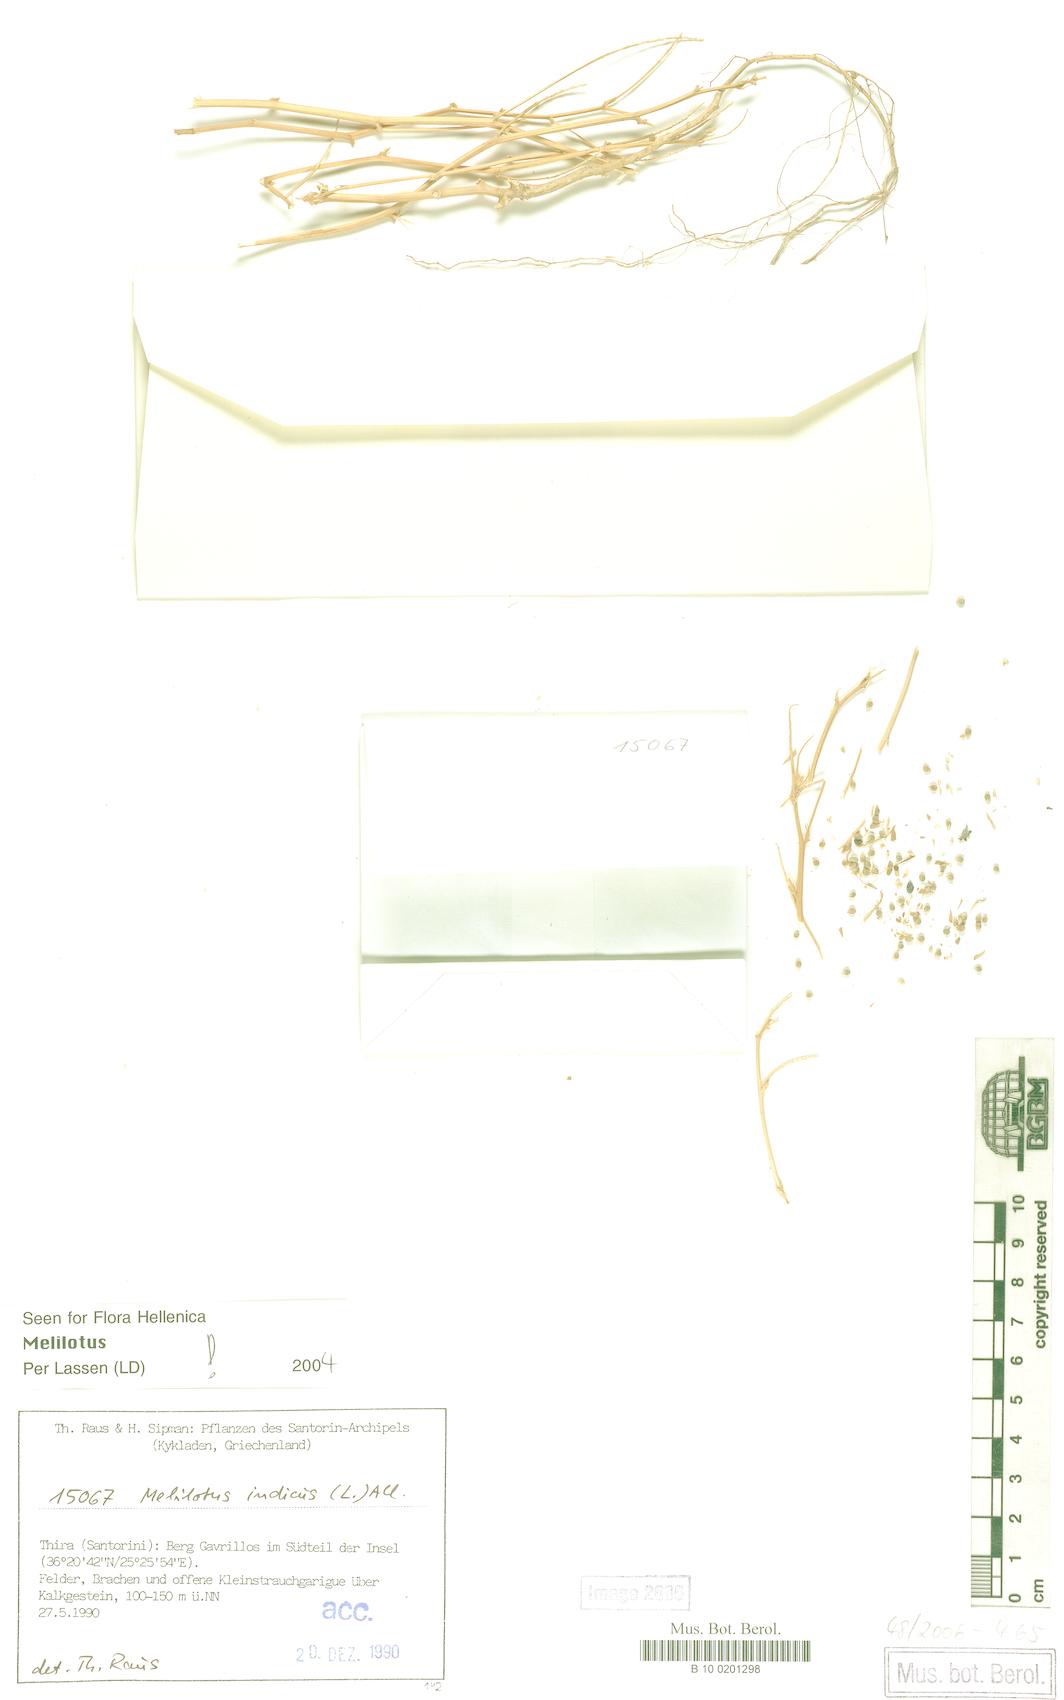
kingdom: Plantae
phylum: Tracheophyta
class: Magnoliopsida
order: Fabales
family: Fabaceae
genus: Melilotus
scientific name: Melilotus indicus
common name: Small melilot
